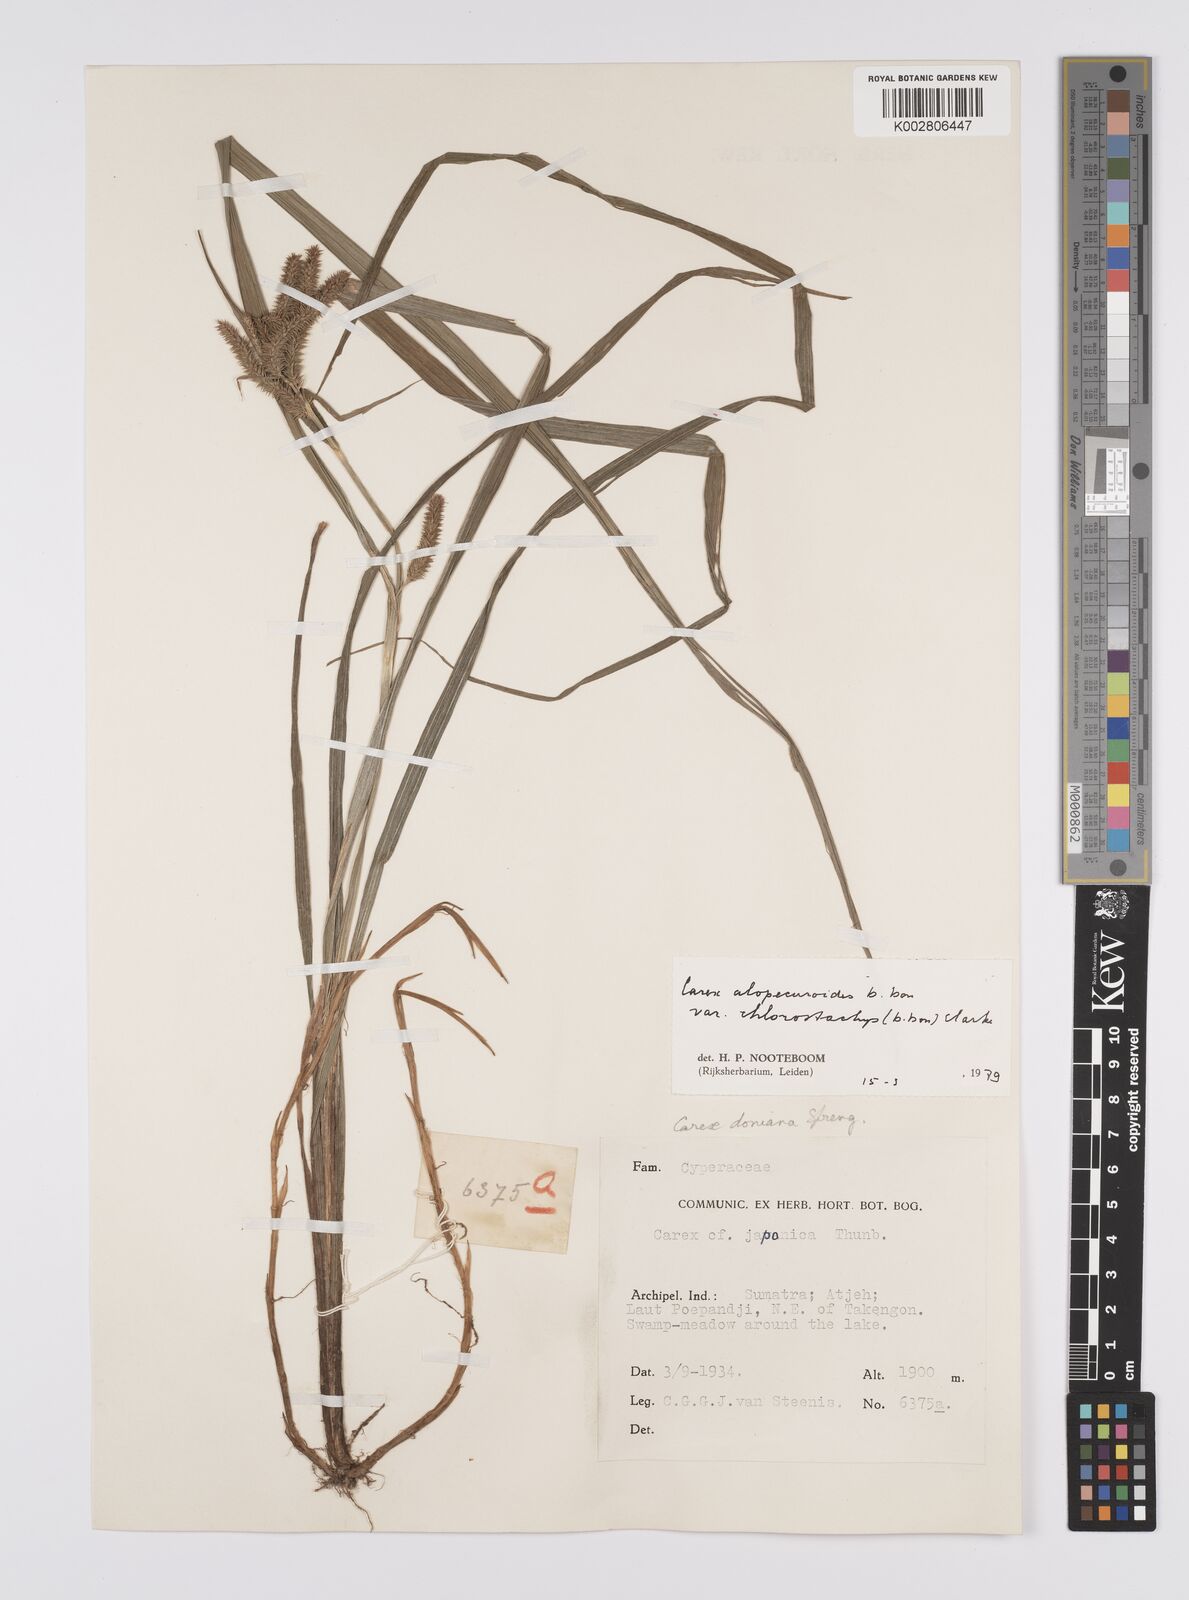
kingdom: Plantae
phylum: Tracheophyta
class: Liliopsida
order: Poales
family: Cyperaceae
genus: Carex
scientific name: Carex alopecuroides
